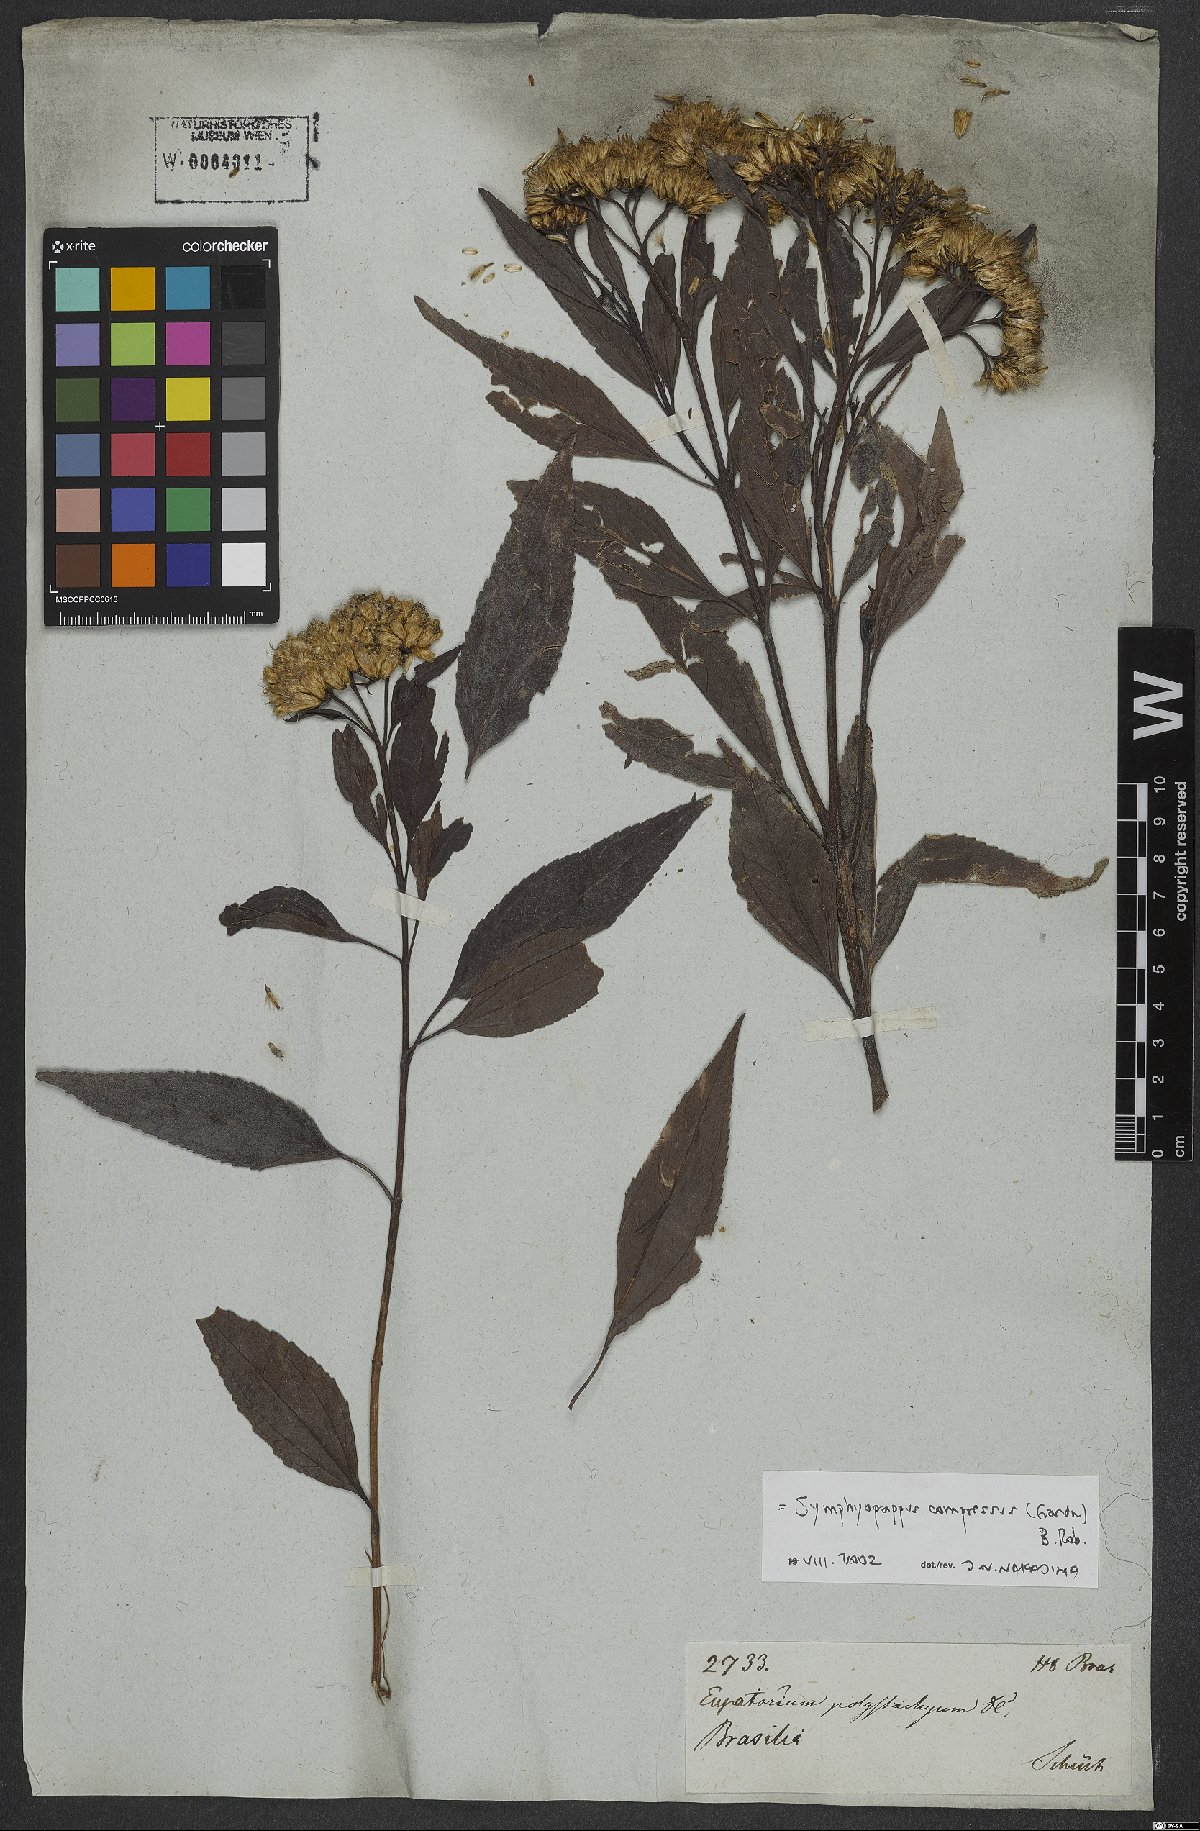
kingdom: Plantae
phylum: Tracheophyta
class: Magnoliopsida
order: Asterales
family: Asteraceae
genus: Symphyopappus
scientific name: Symphyopappus compressus
